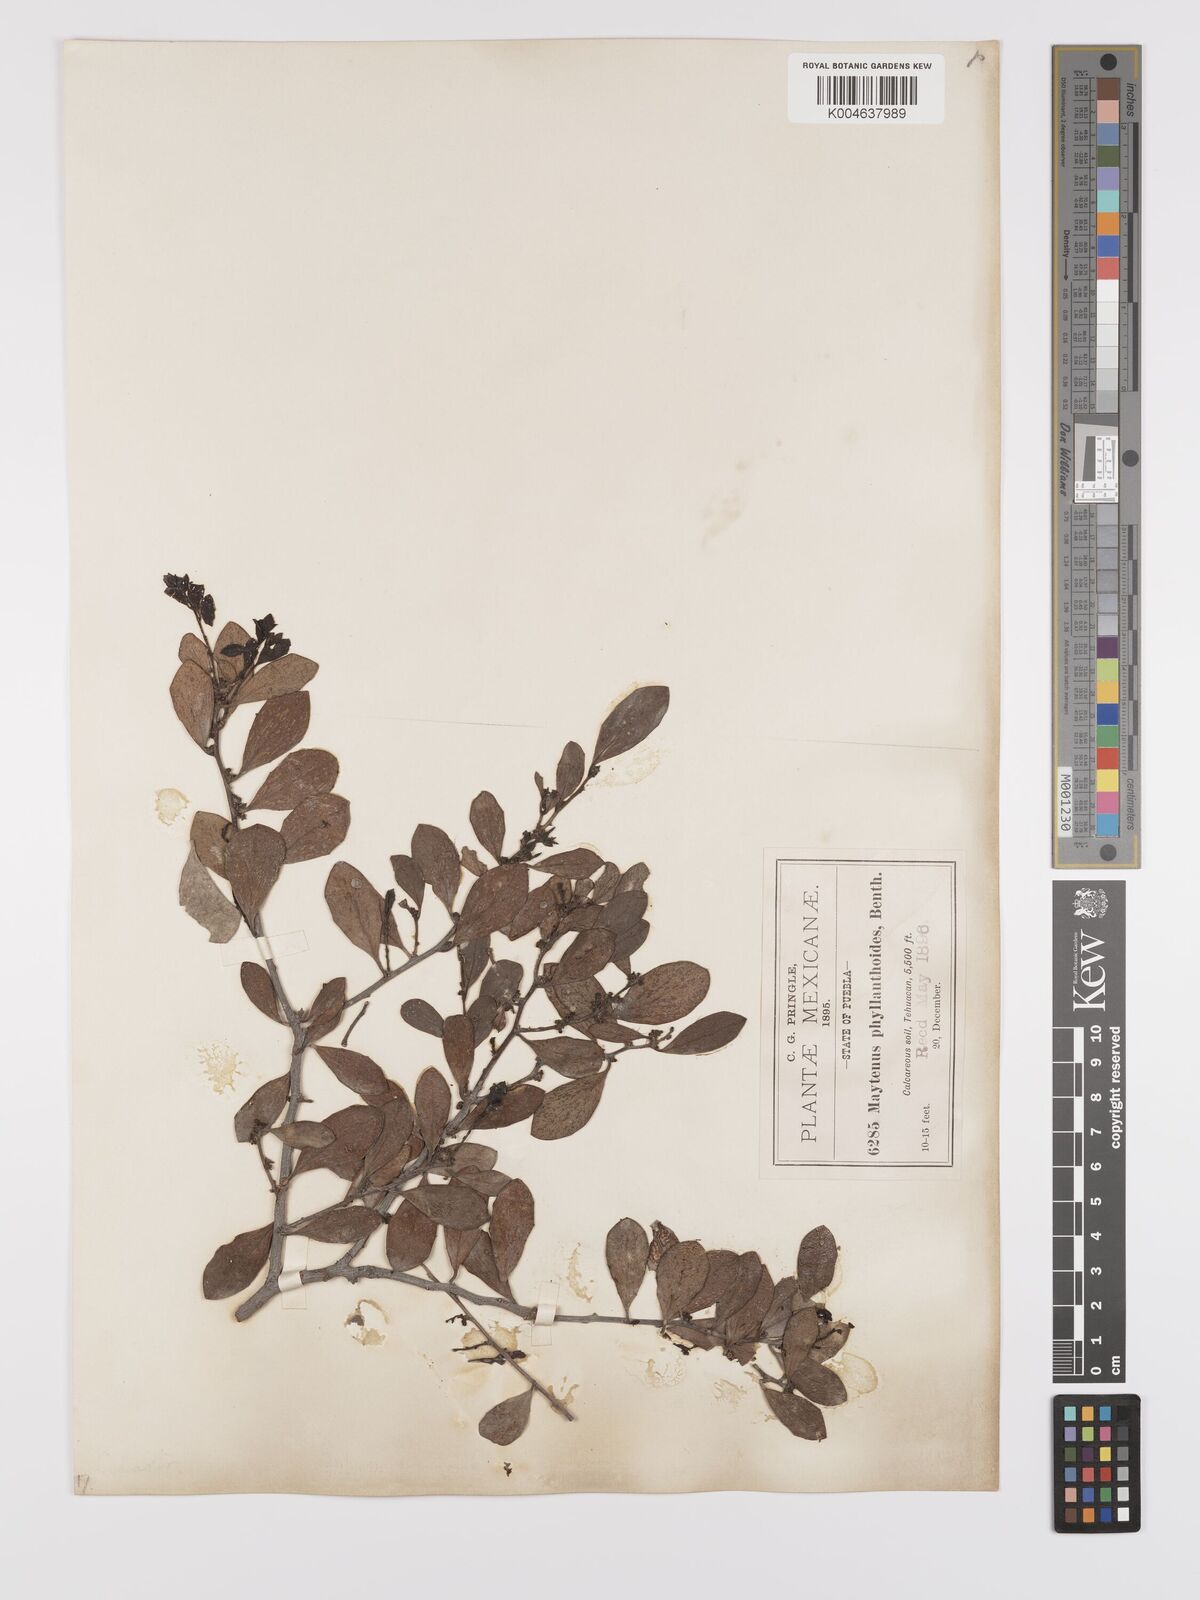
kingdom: Plantae
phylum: Tracheophyta
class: Magnoliopsida
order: Celastrales
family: Celastraceae
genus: Tricerma
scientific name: Tricerma phyllanthoides
